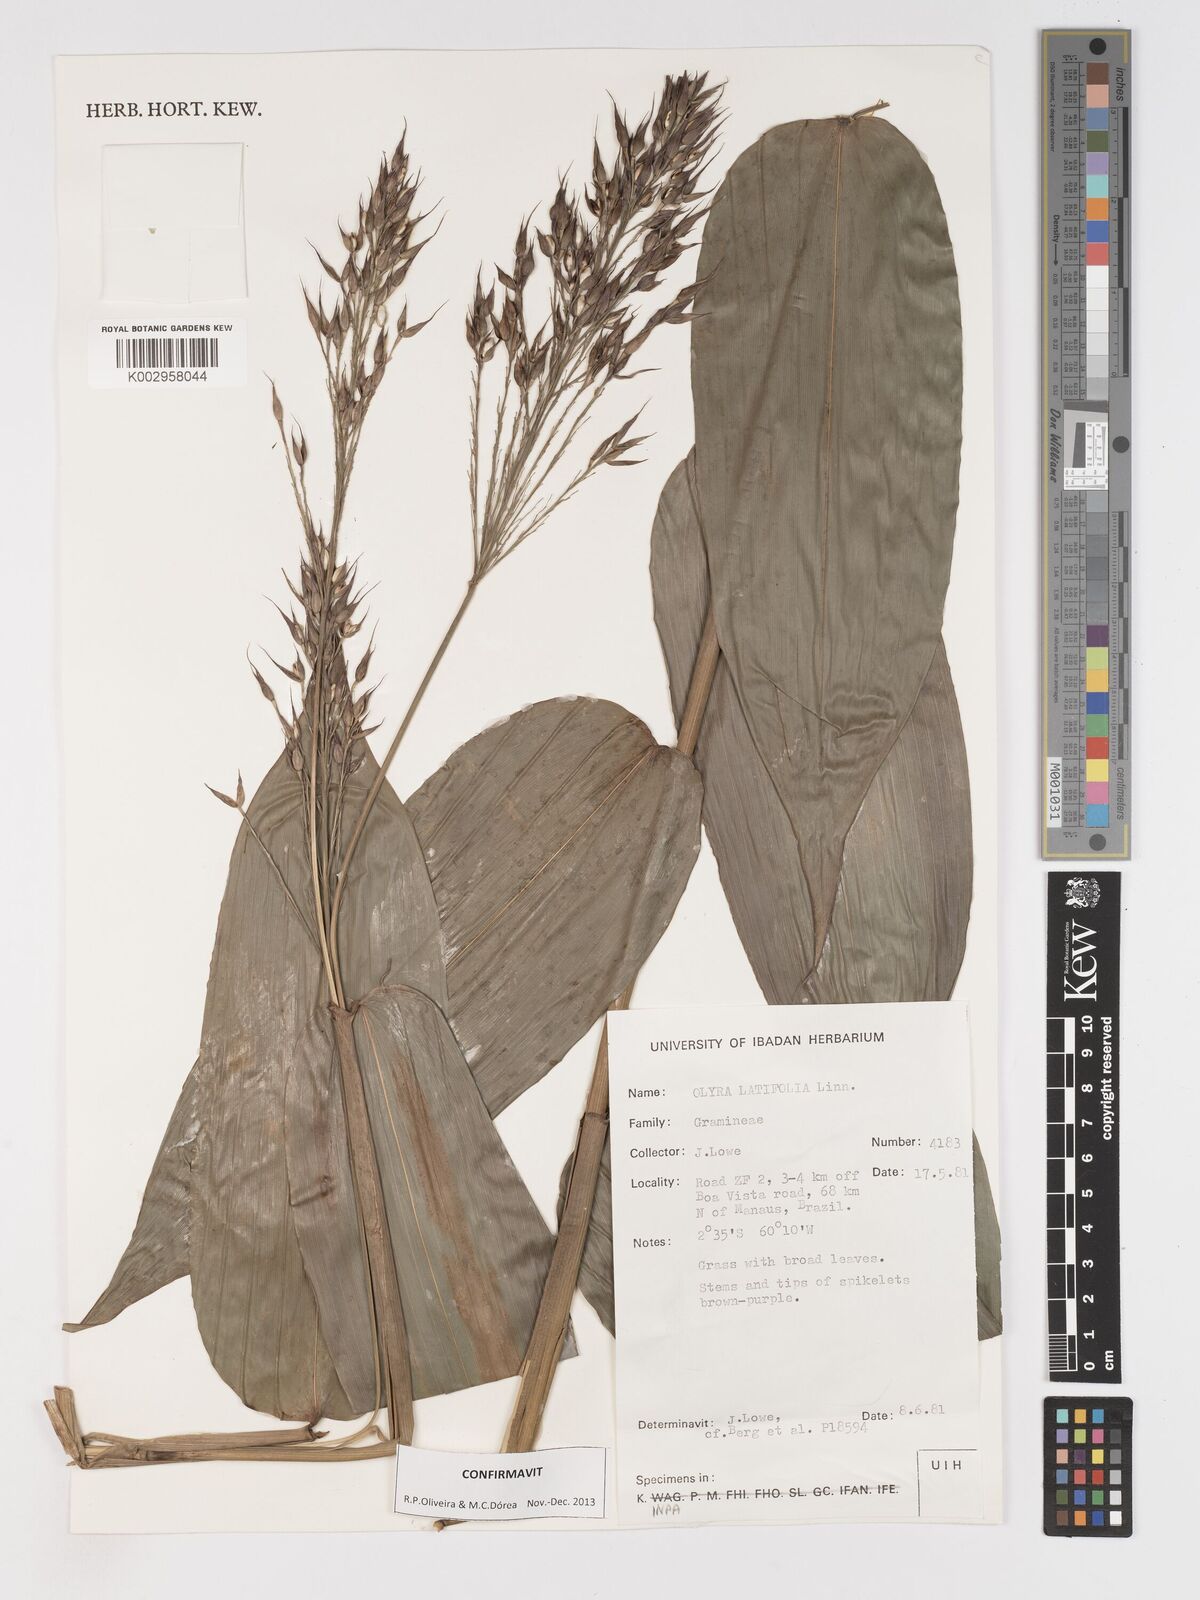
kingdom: Plantae
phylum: Tracheophyta
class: Liliopsida
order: Poales
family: Poaceae
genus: Olyra
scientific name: Olyra latifolia
